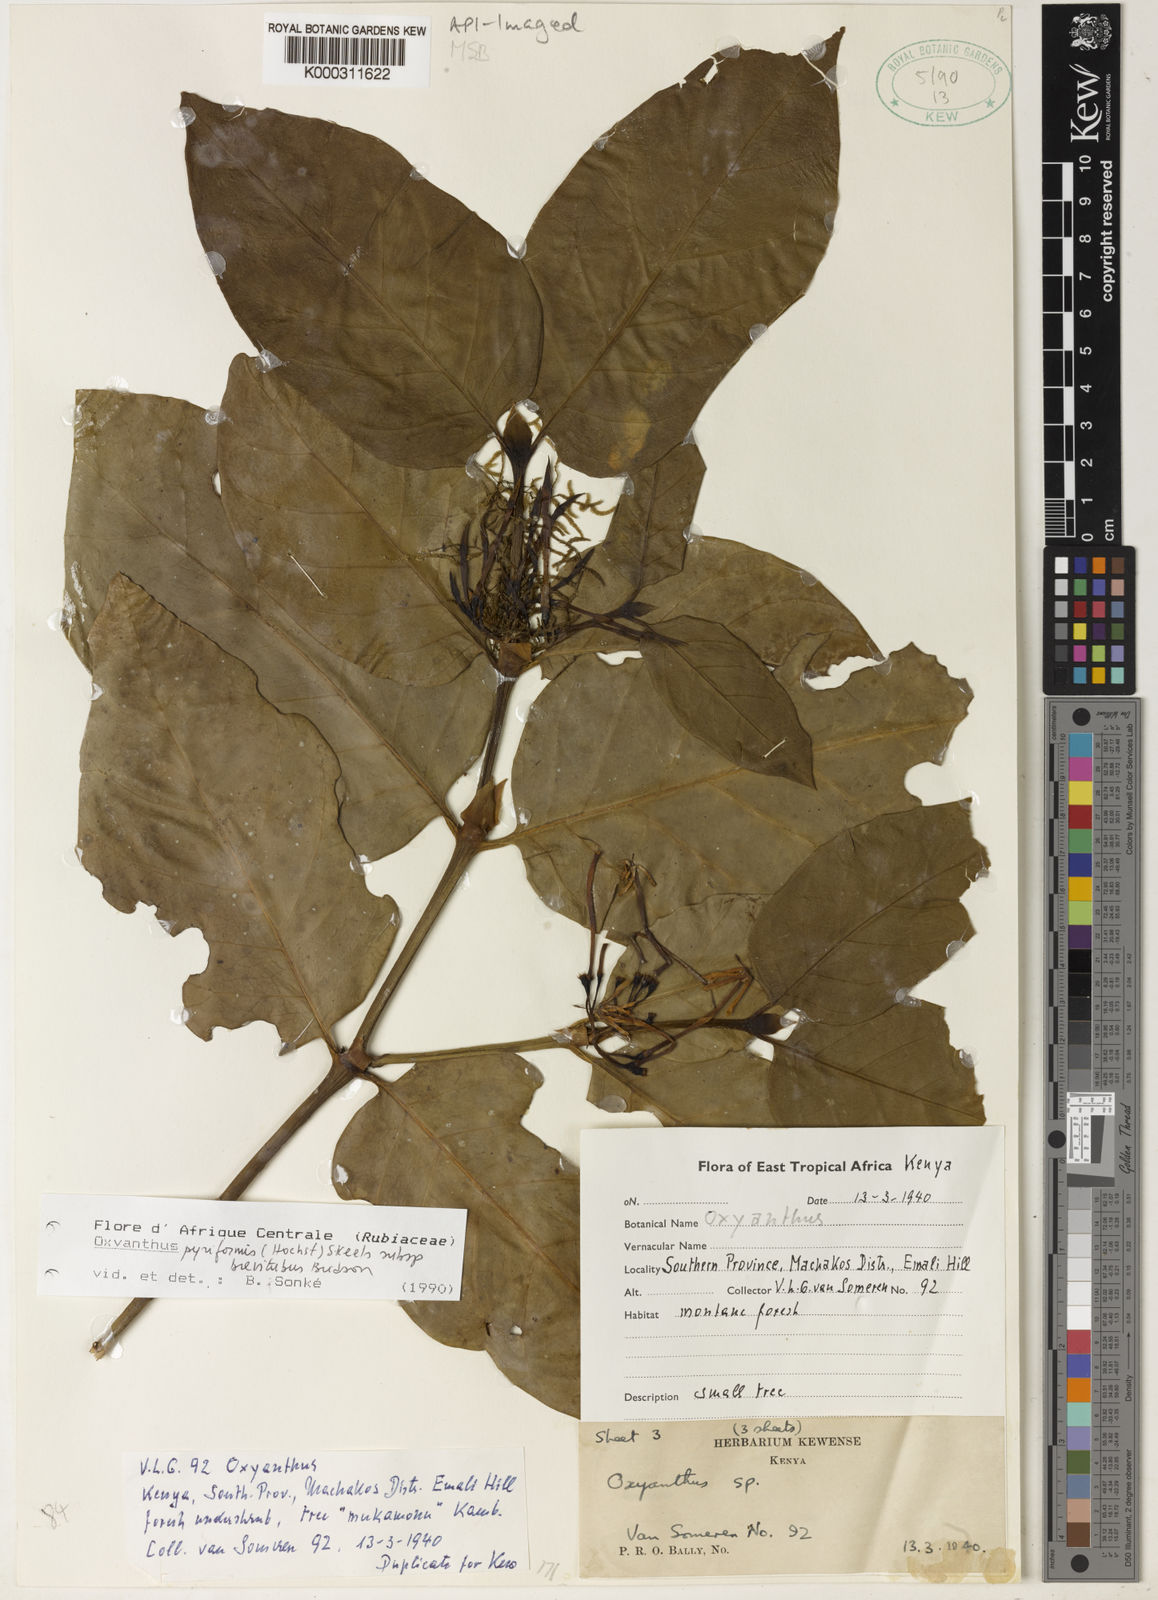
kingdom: Plantae
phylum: Tracheophyta
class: Magnoliopsida
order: Gentianales
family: Rubiaceae
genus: Oxyanthus
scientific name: Oxyanthus pyriformis
